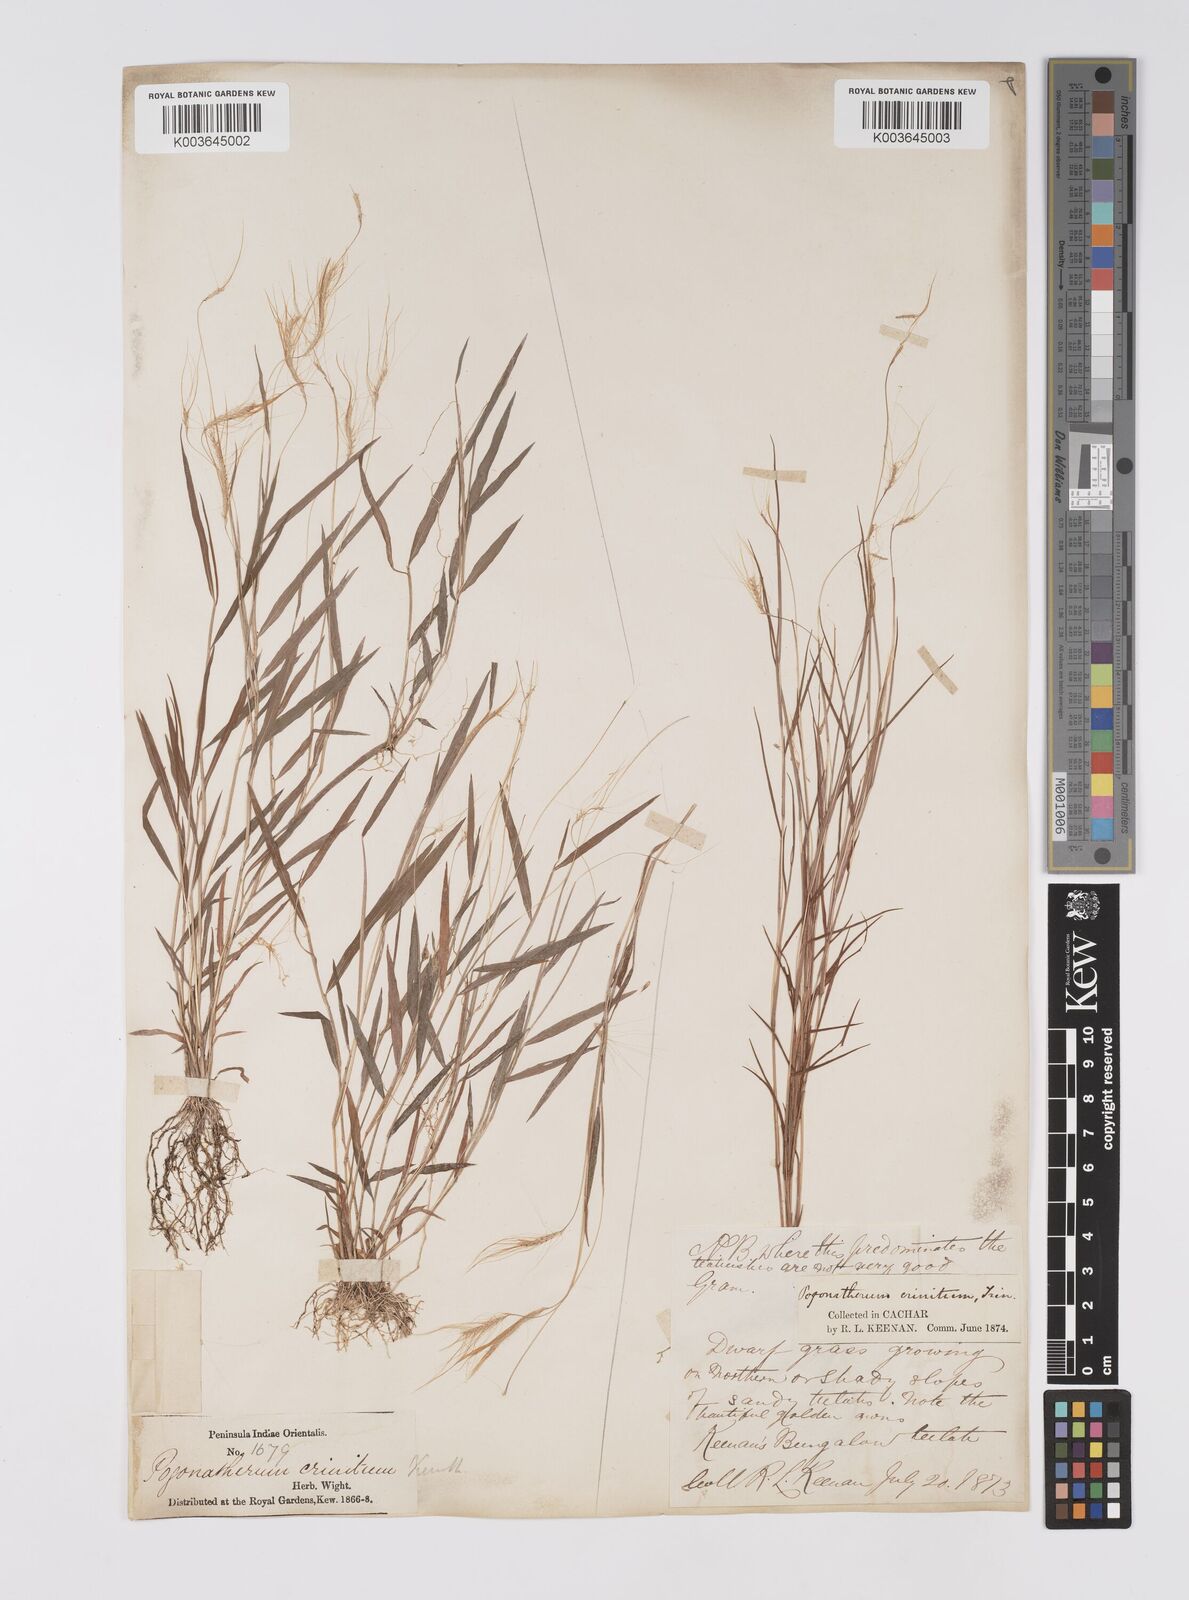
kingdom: Plantae
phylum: Tracheophyta
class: Liliopsida
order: Poales
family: Poaceae
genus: Pogonatherum
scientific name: Pogonatherum crinitum
